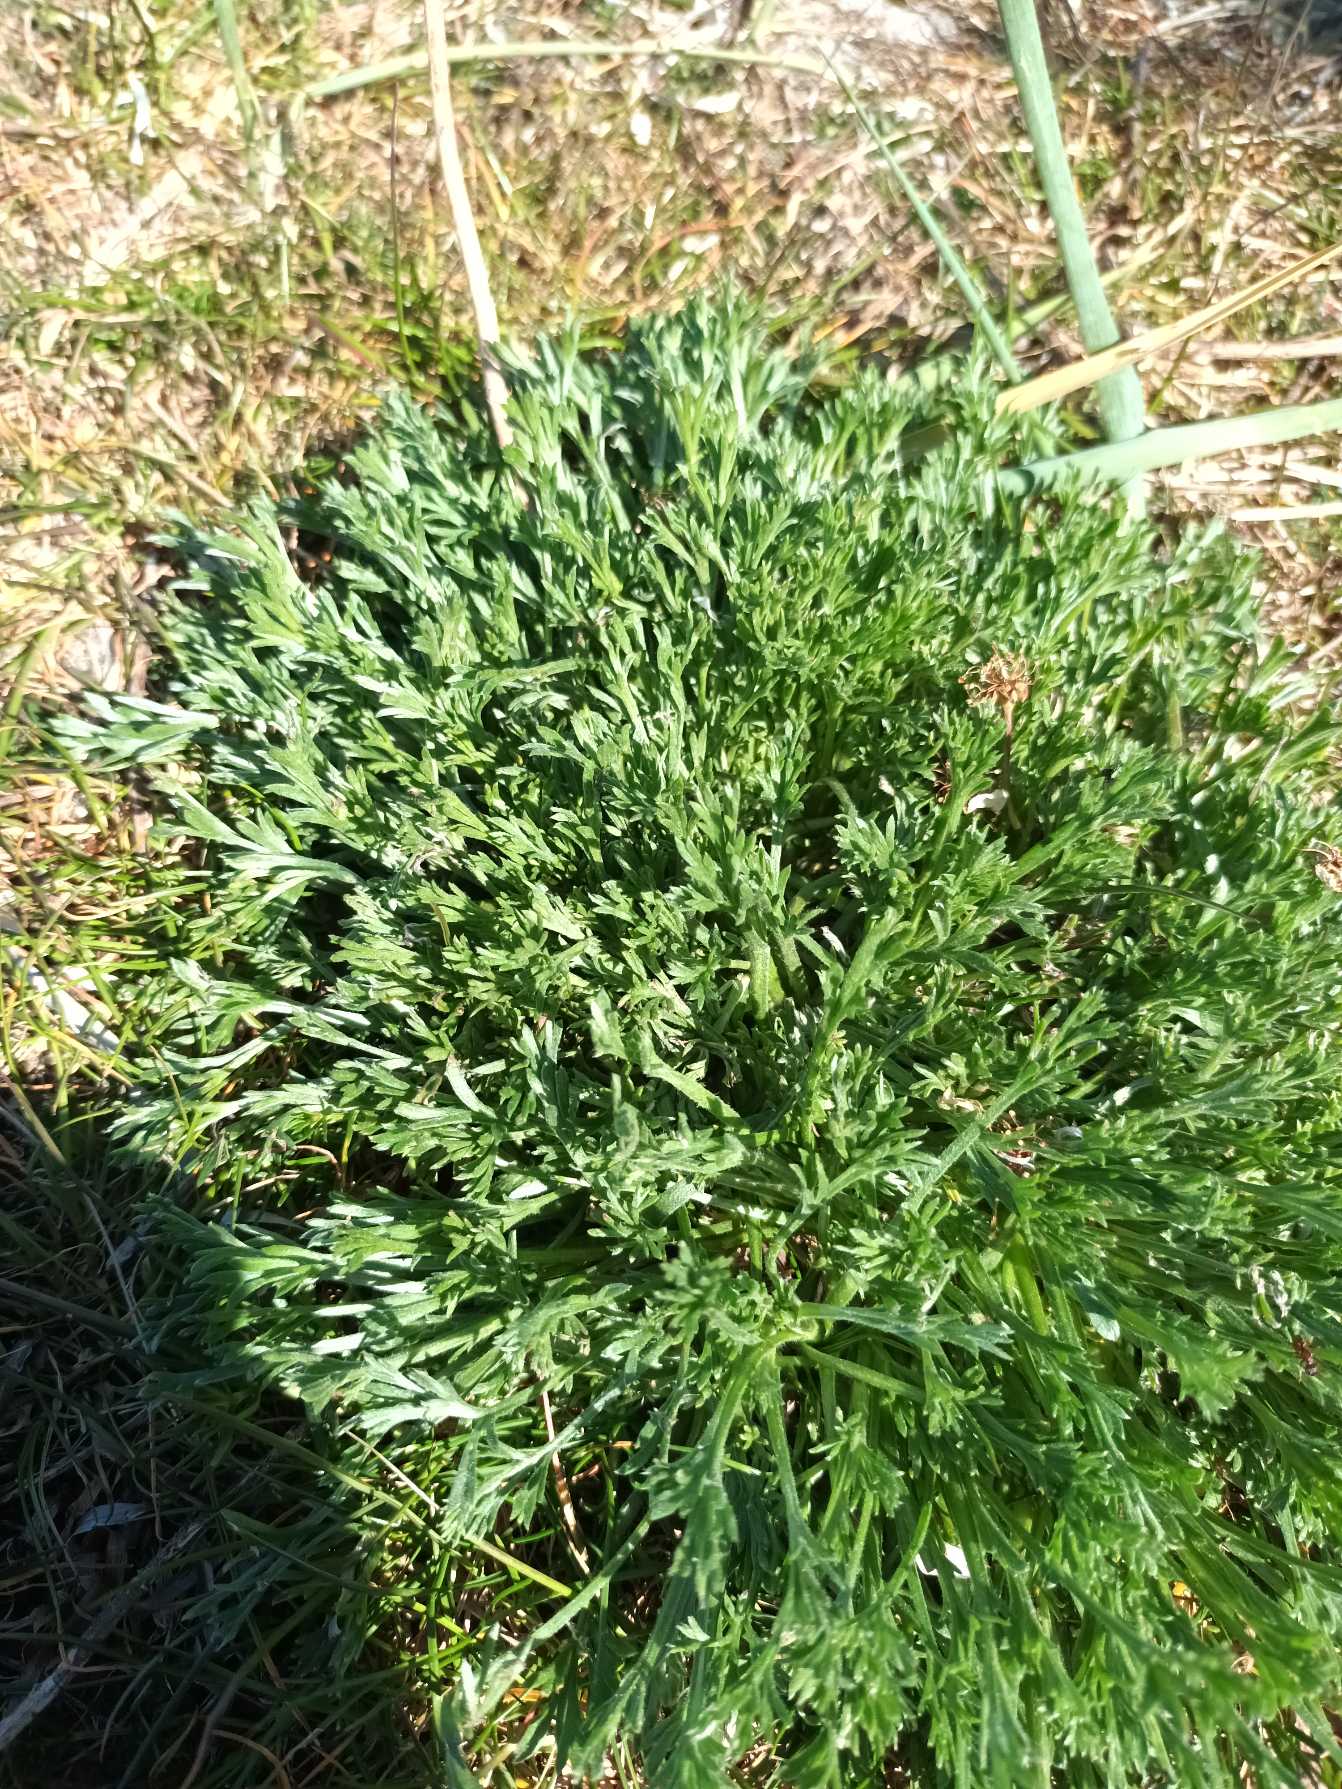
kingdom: Plantae
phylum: Tracheophyta
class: Magnoliopsida
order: Asterales
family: Asteraceae
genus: Artemisia
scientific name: Artemisia campestris
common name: Mark-bynke
